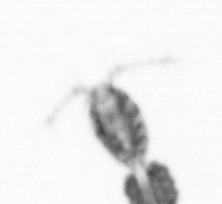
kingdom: Animalia
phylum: Arthropoda
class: Copepoda
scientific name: Copepoda
